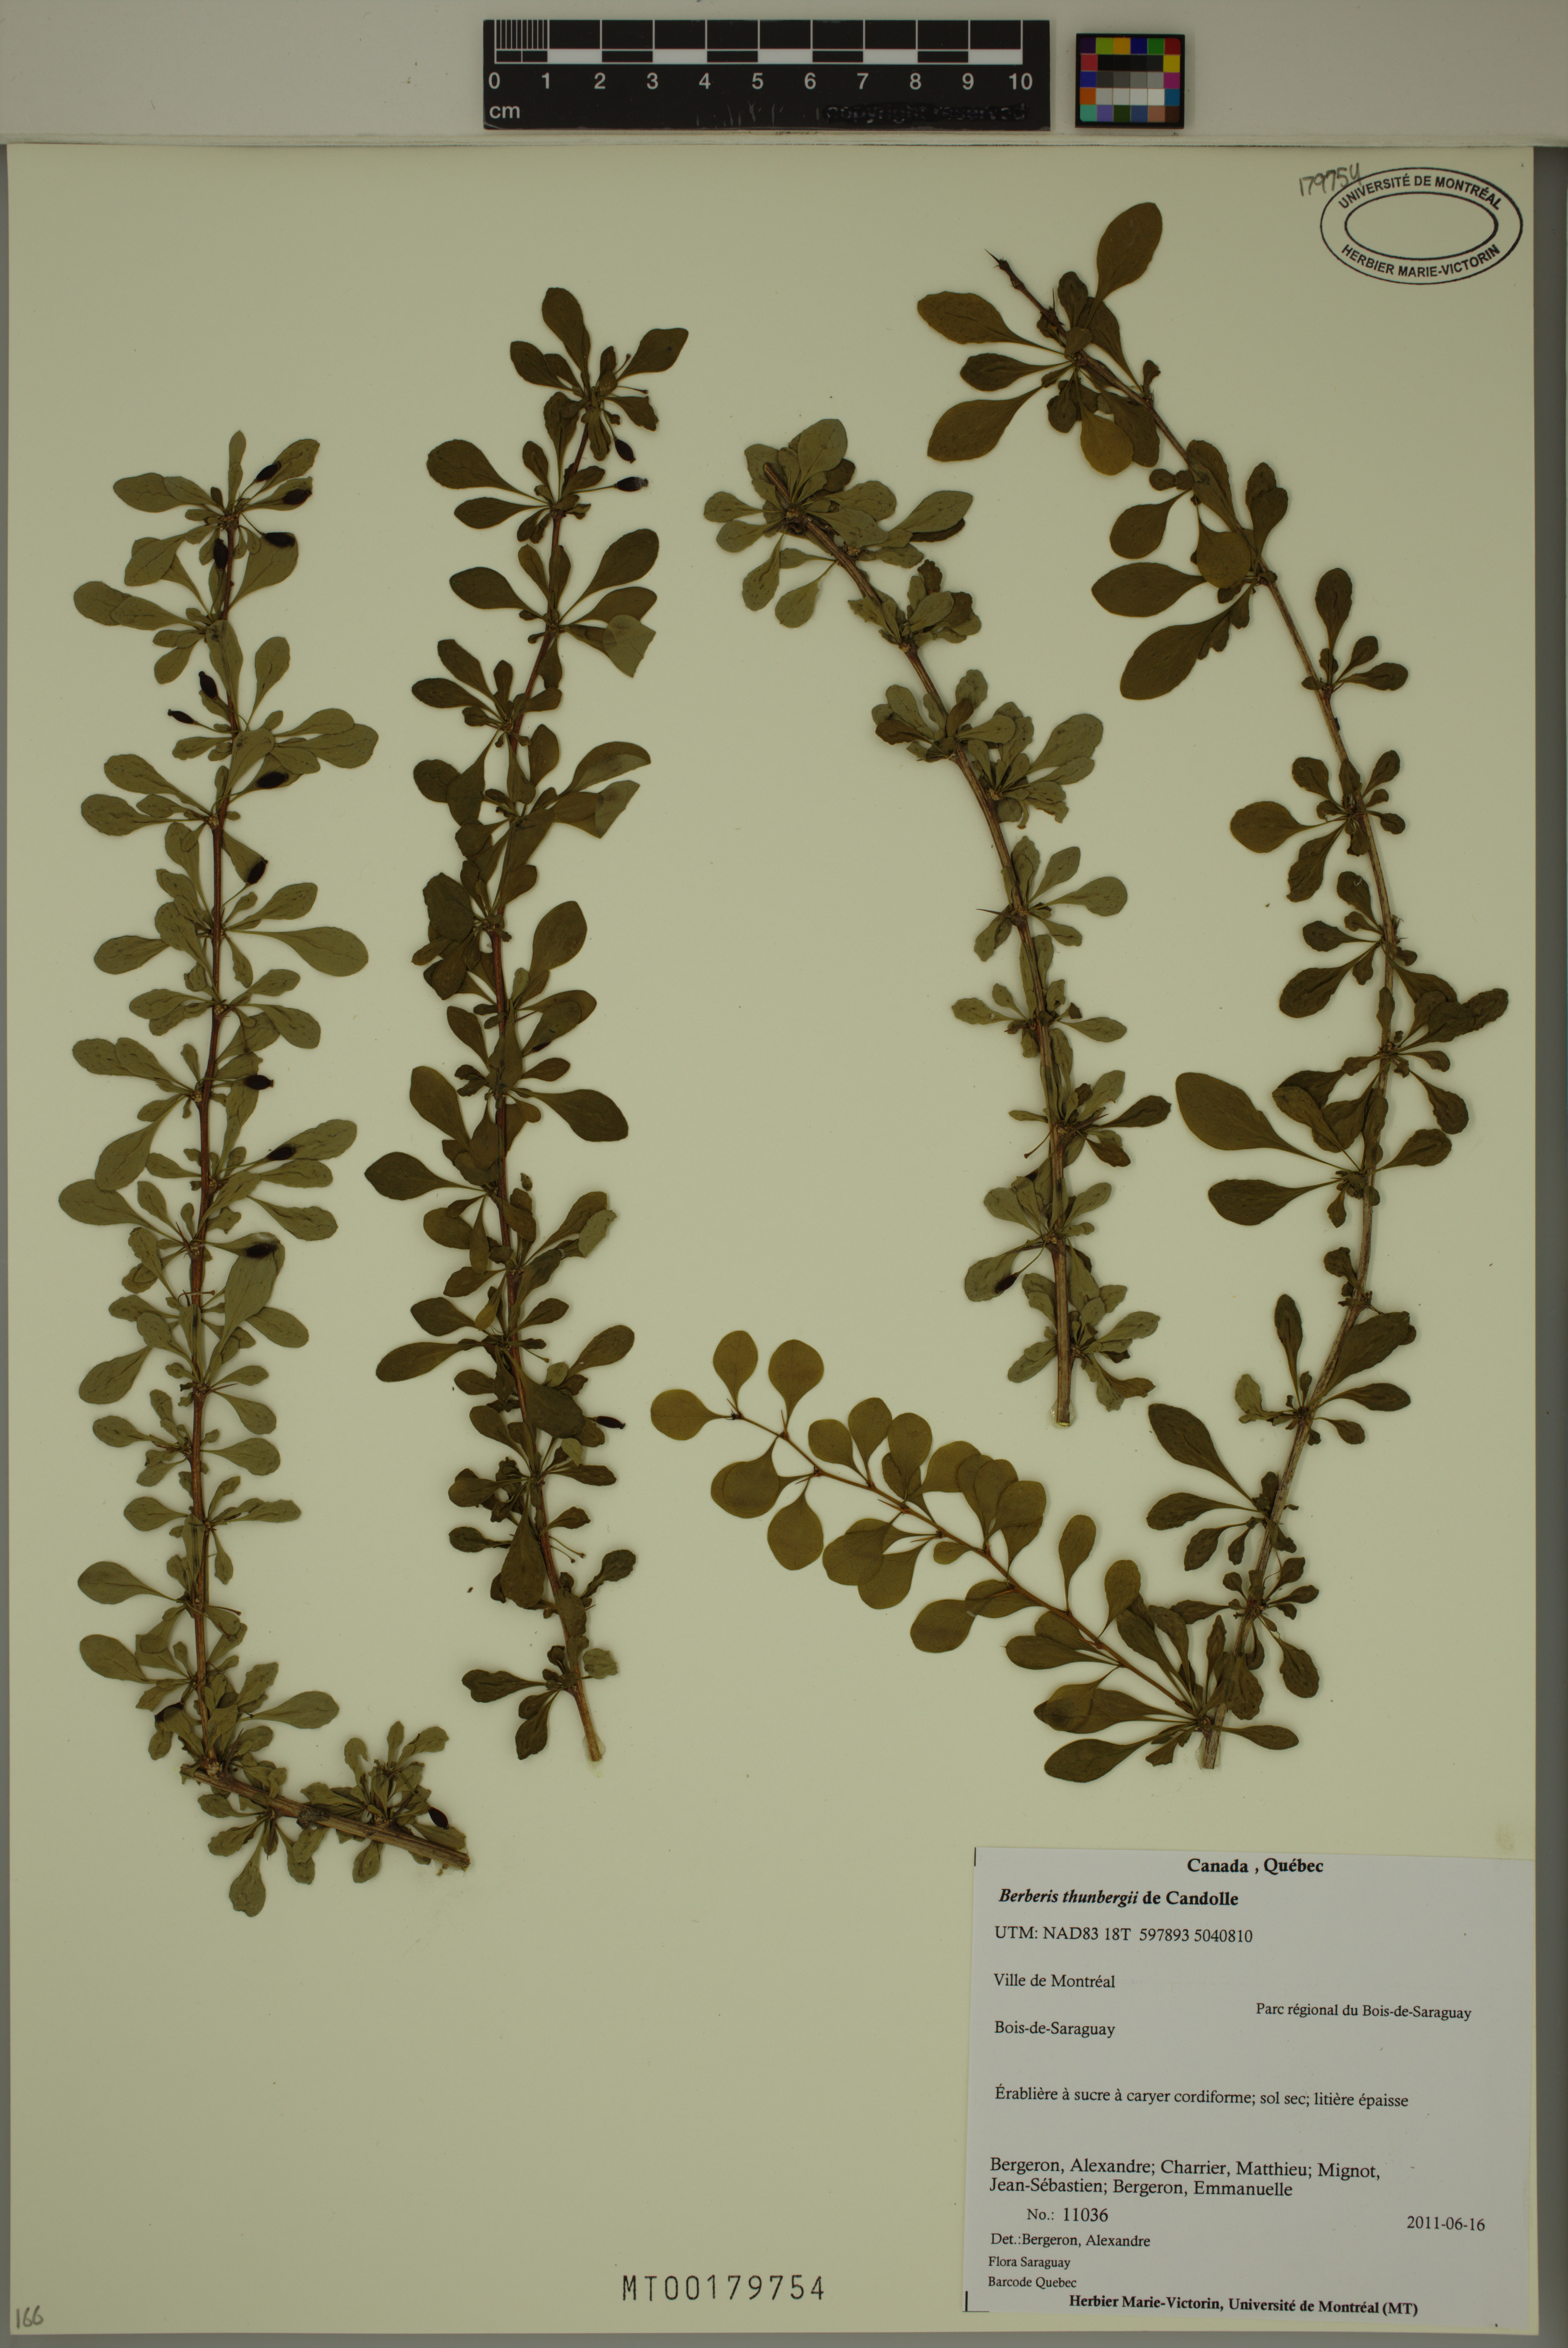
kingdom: Plantae
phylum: Tracheophyta
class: Magnoliopsida
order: Ranunculales
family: Berberidaceae
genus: Berberis
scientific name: Berberis thunbergii
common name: Japanese barberry
